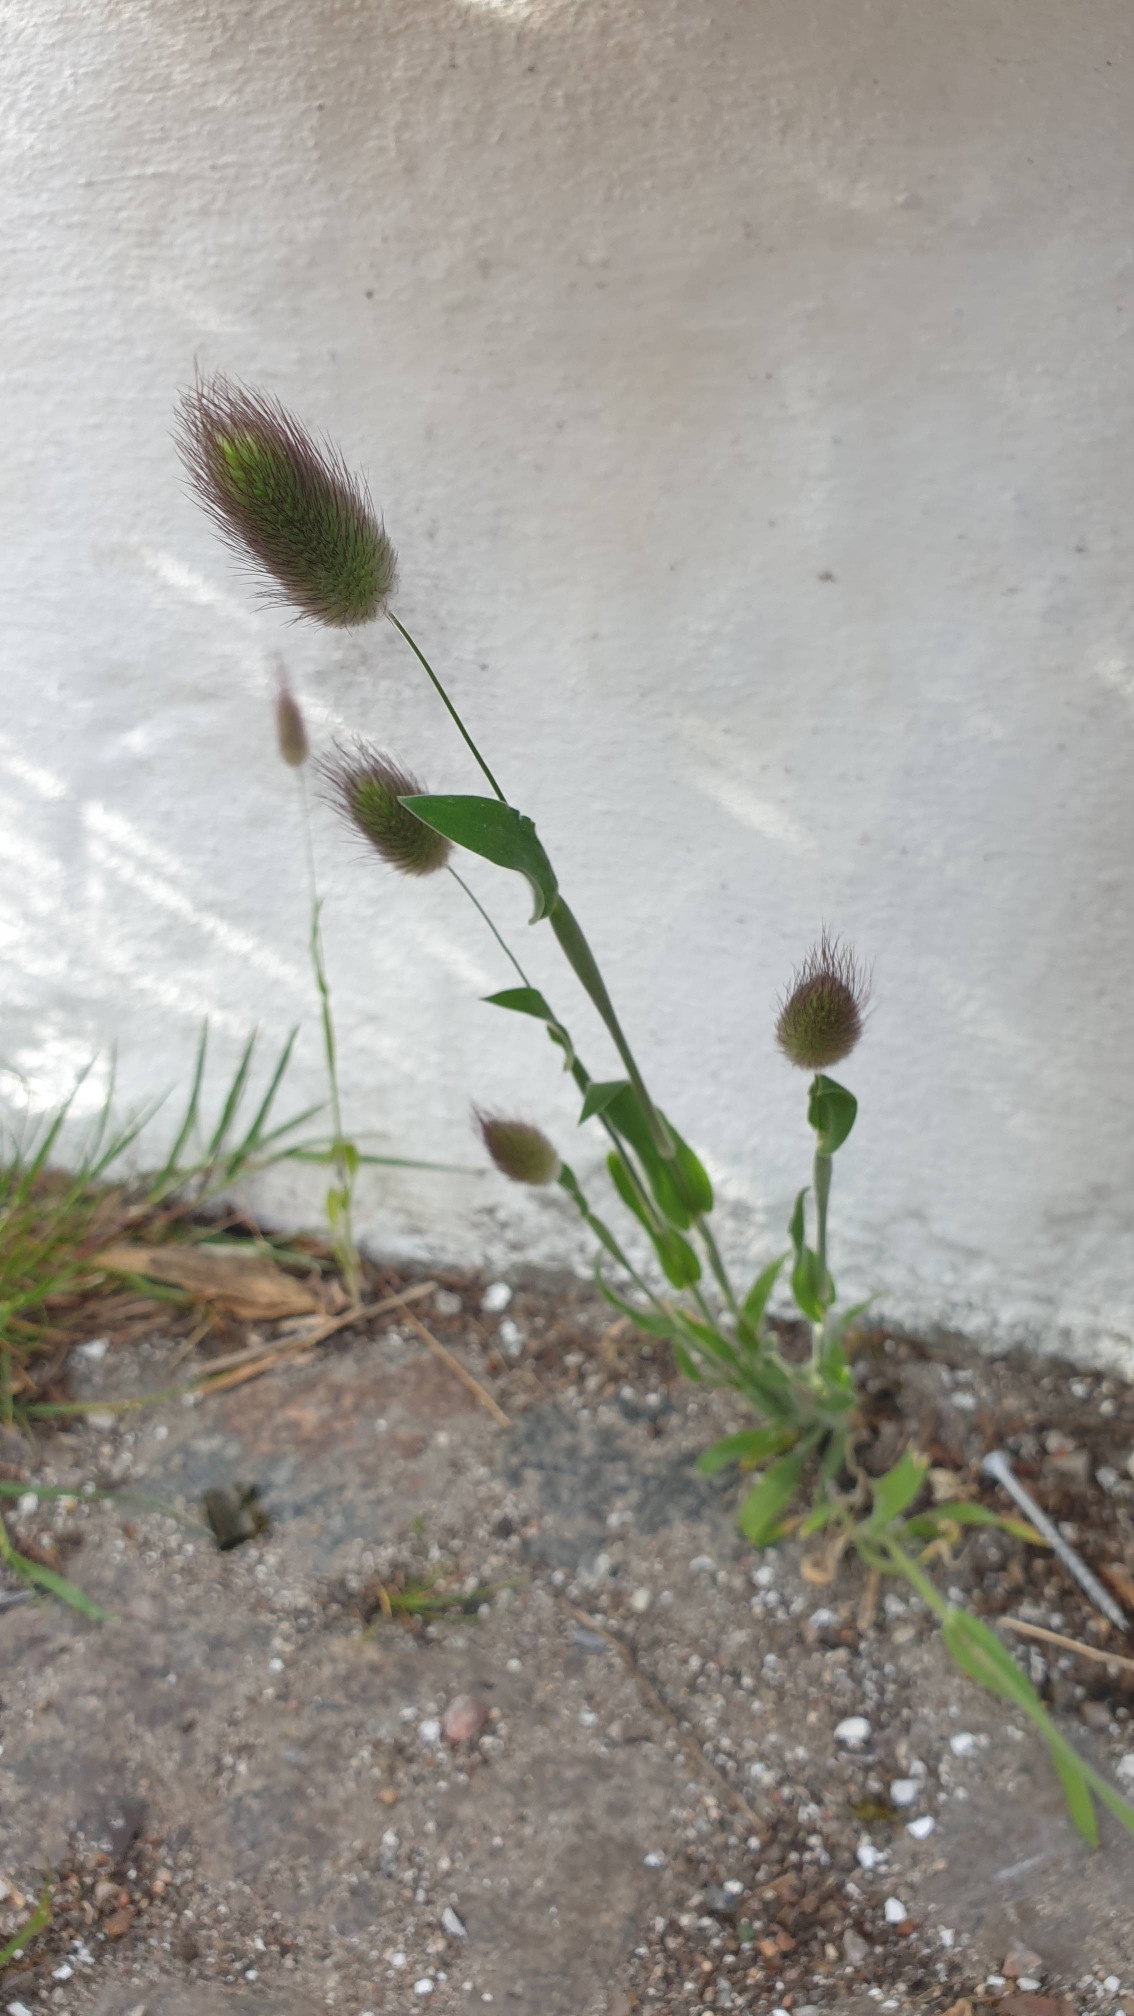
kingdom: Plantae
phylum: Tracheophyta
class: Liliopsida
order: Poales
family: Poaceae
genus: Lagurus
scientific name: Lagurus ovatus
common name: Harehale
